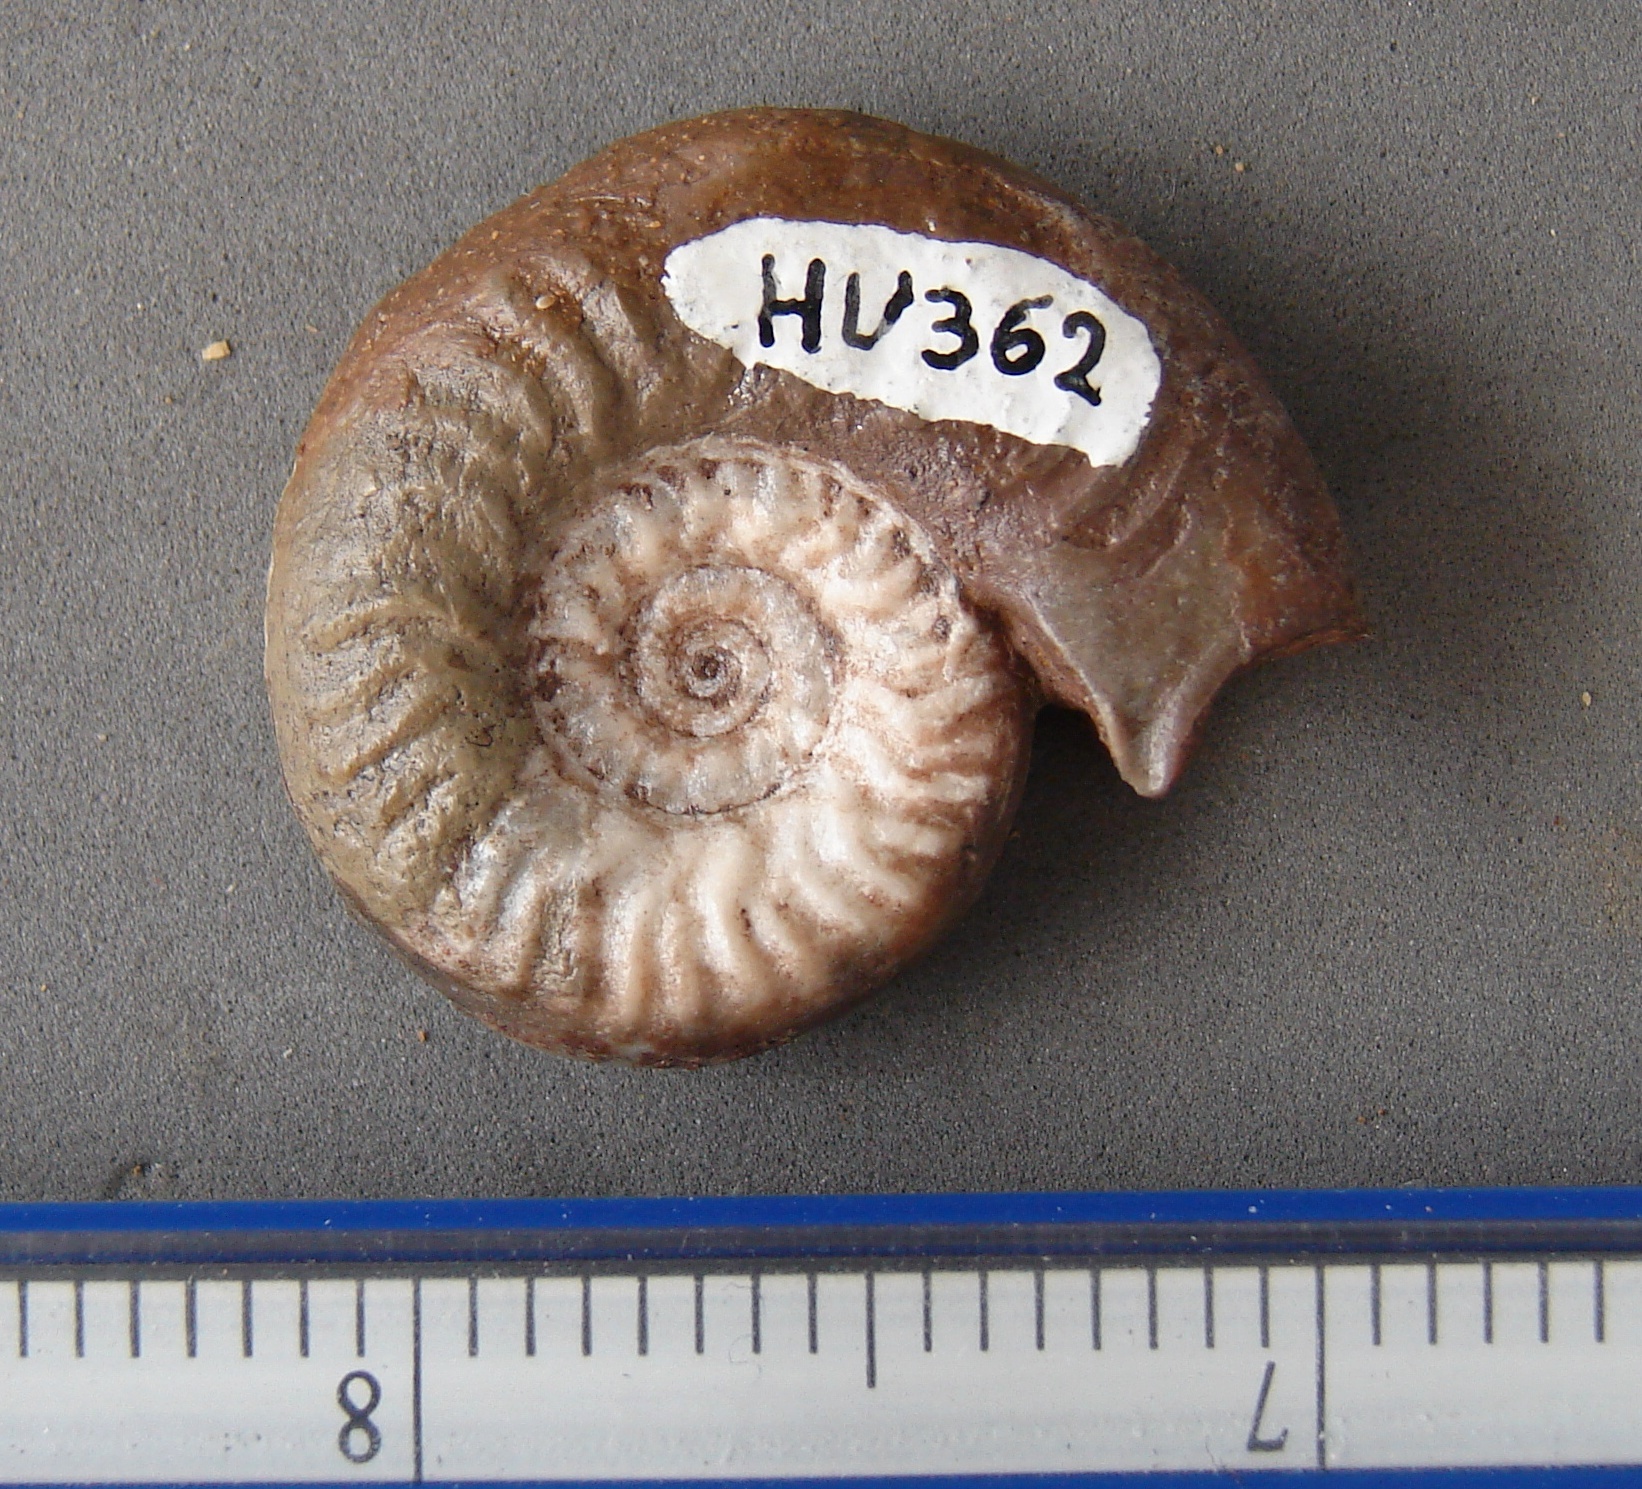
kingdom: Animalia
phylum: Mollusca
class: Cephalopoda
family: Graphoceratidae
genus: Pseudographoceras
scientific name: Pseudographoceras
